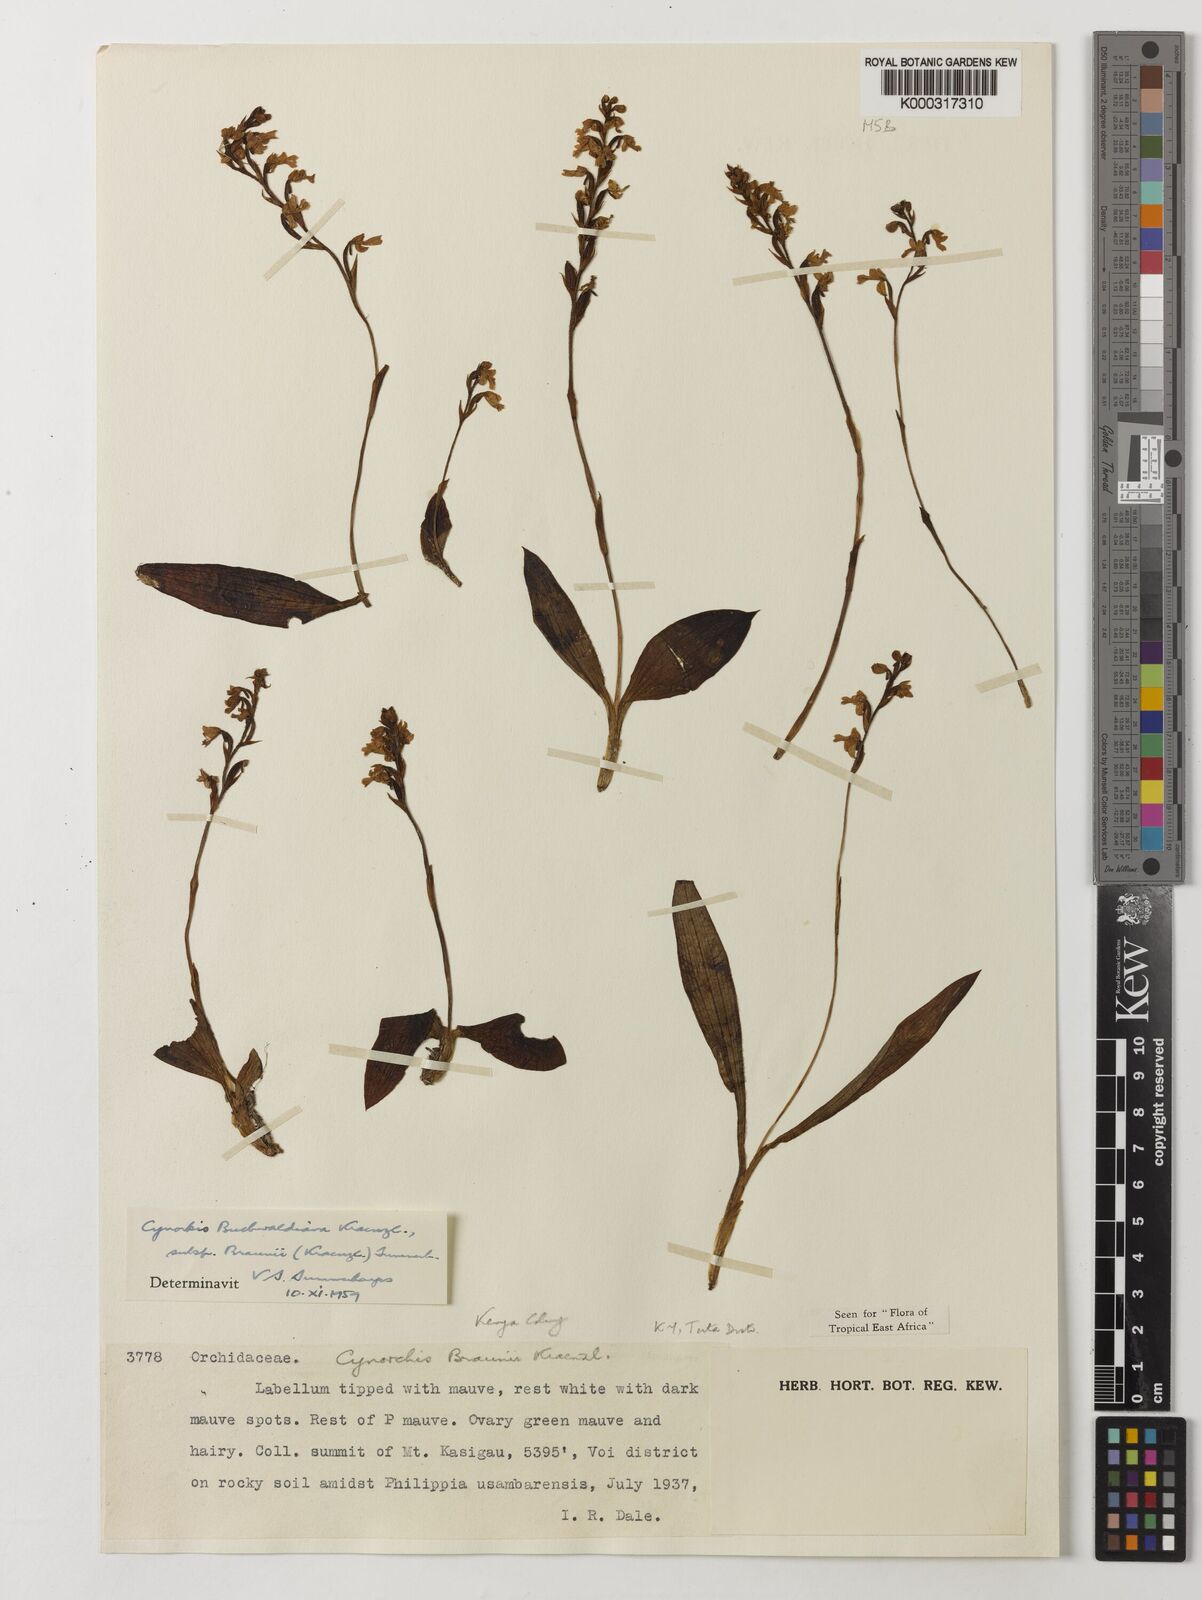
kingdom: Plantae
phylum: Tracheophyta
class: Liliopsida
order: Asparagales
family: Orchidaceae
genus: Cynorkis
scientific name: Cynorkis buchwaldiana
